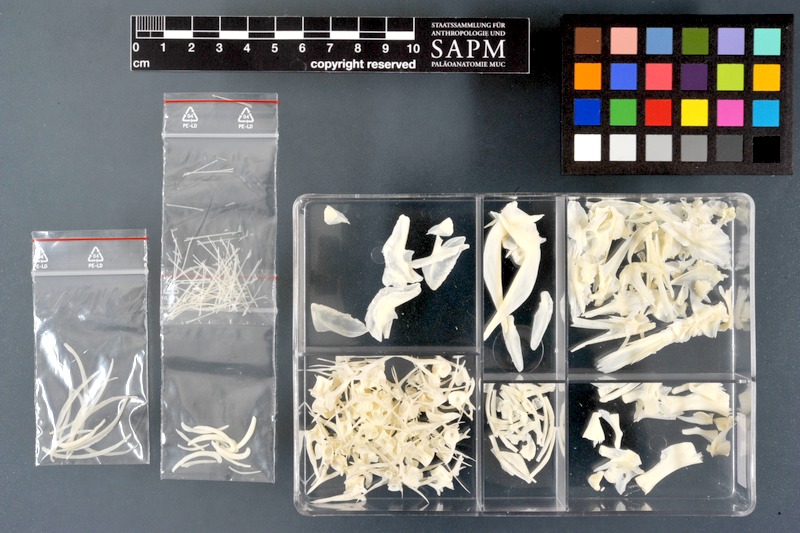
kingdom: Animalia
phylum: Chordata
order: Gadiformes
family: Lotidae
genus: Lota
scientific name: Lota lota
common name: Burbot
